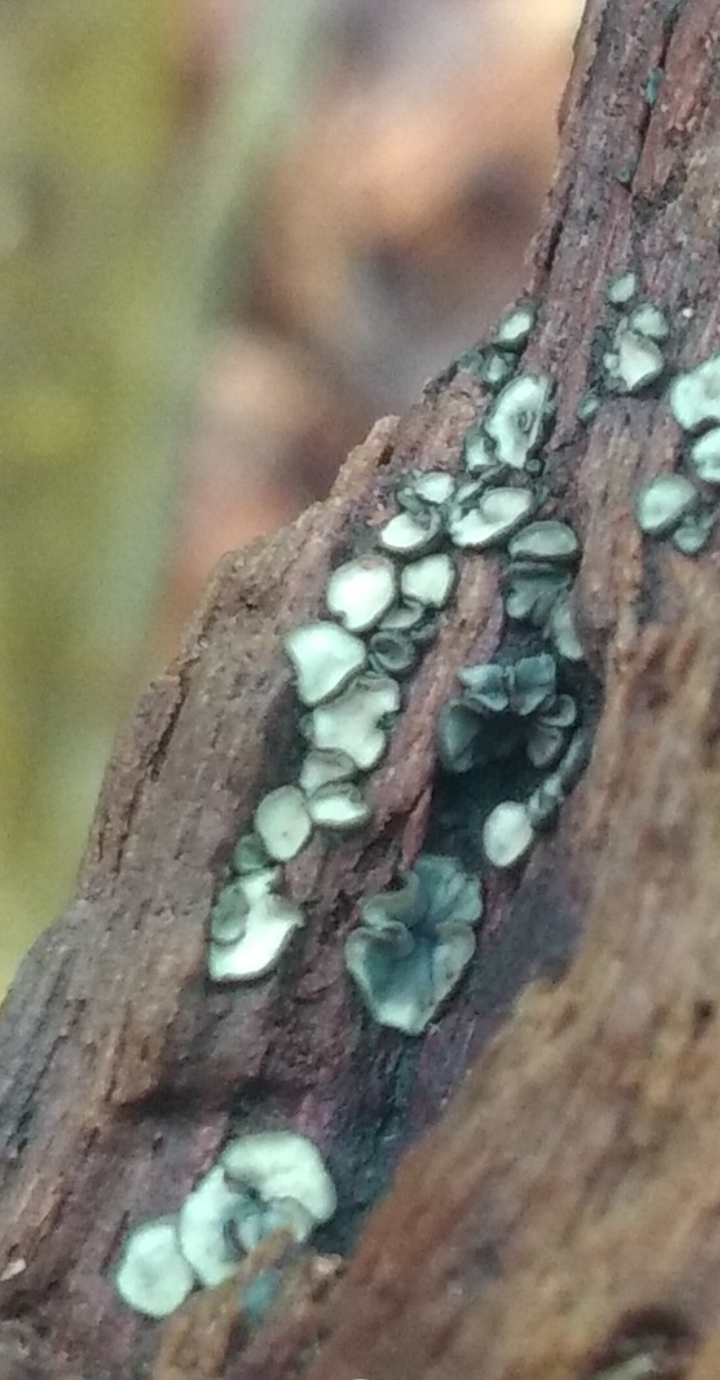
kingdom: Fungi
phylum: Ascomycota
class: Leotiomycetes
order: Helotiales
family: Mollisiaceae
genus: Mollisia
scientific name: Mollisia
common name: gråskive
